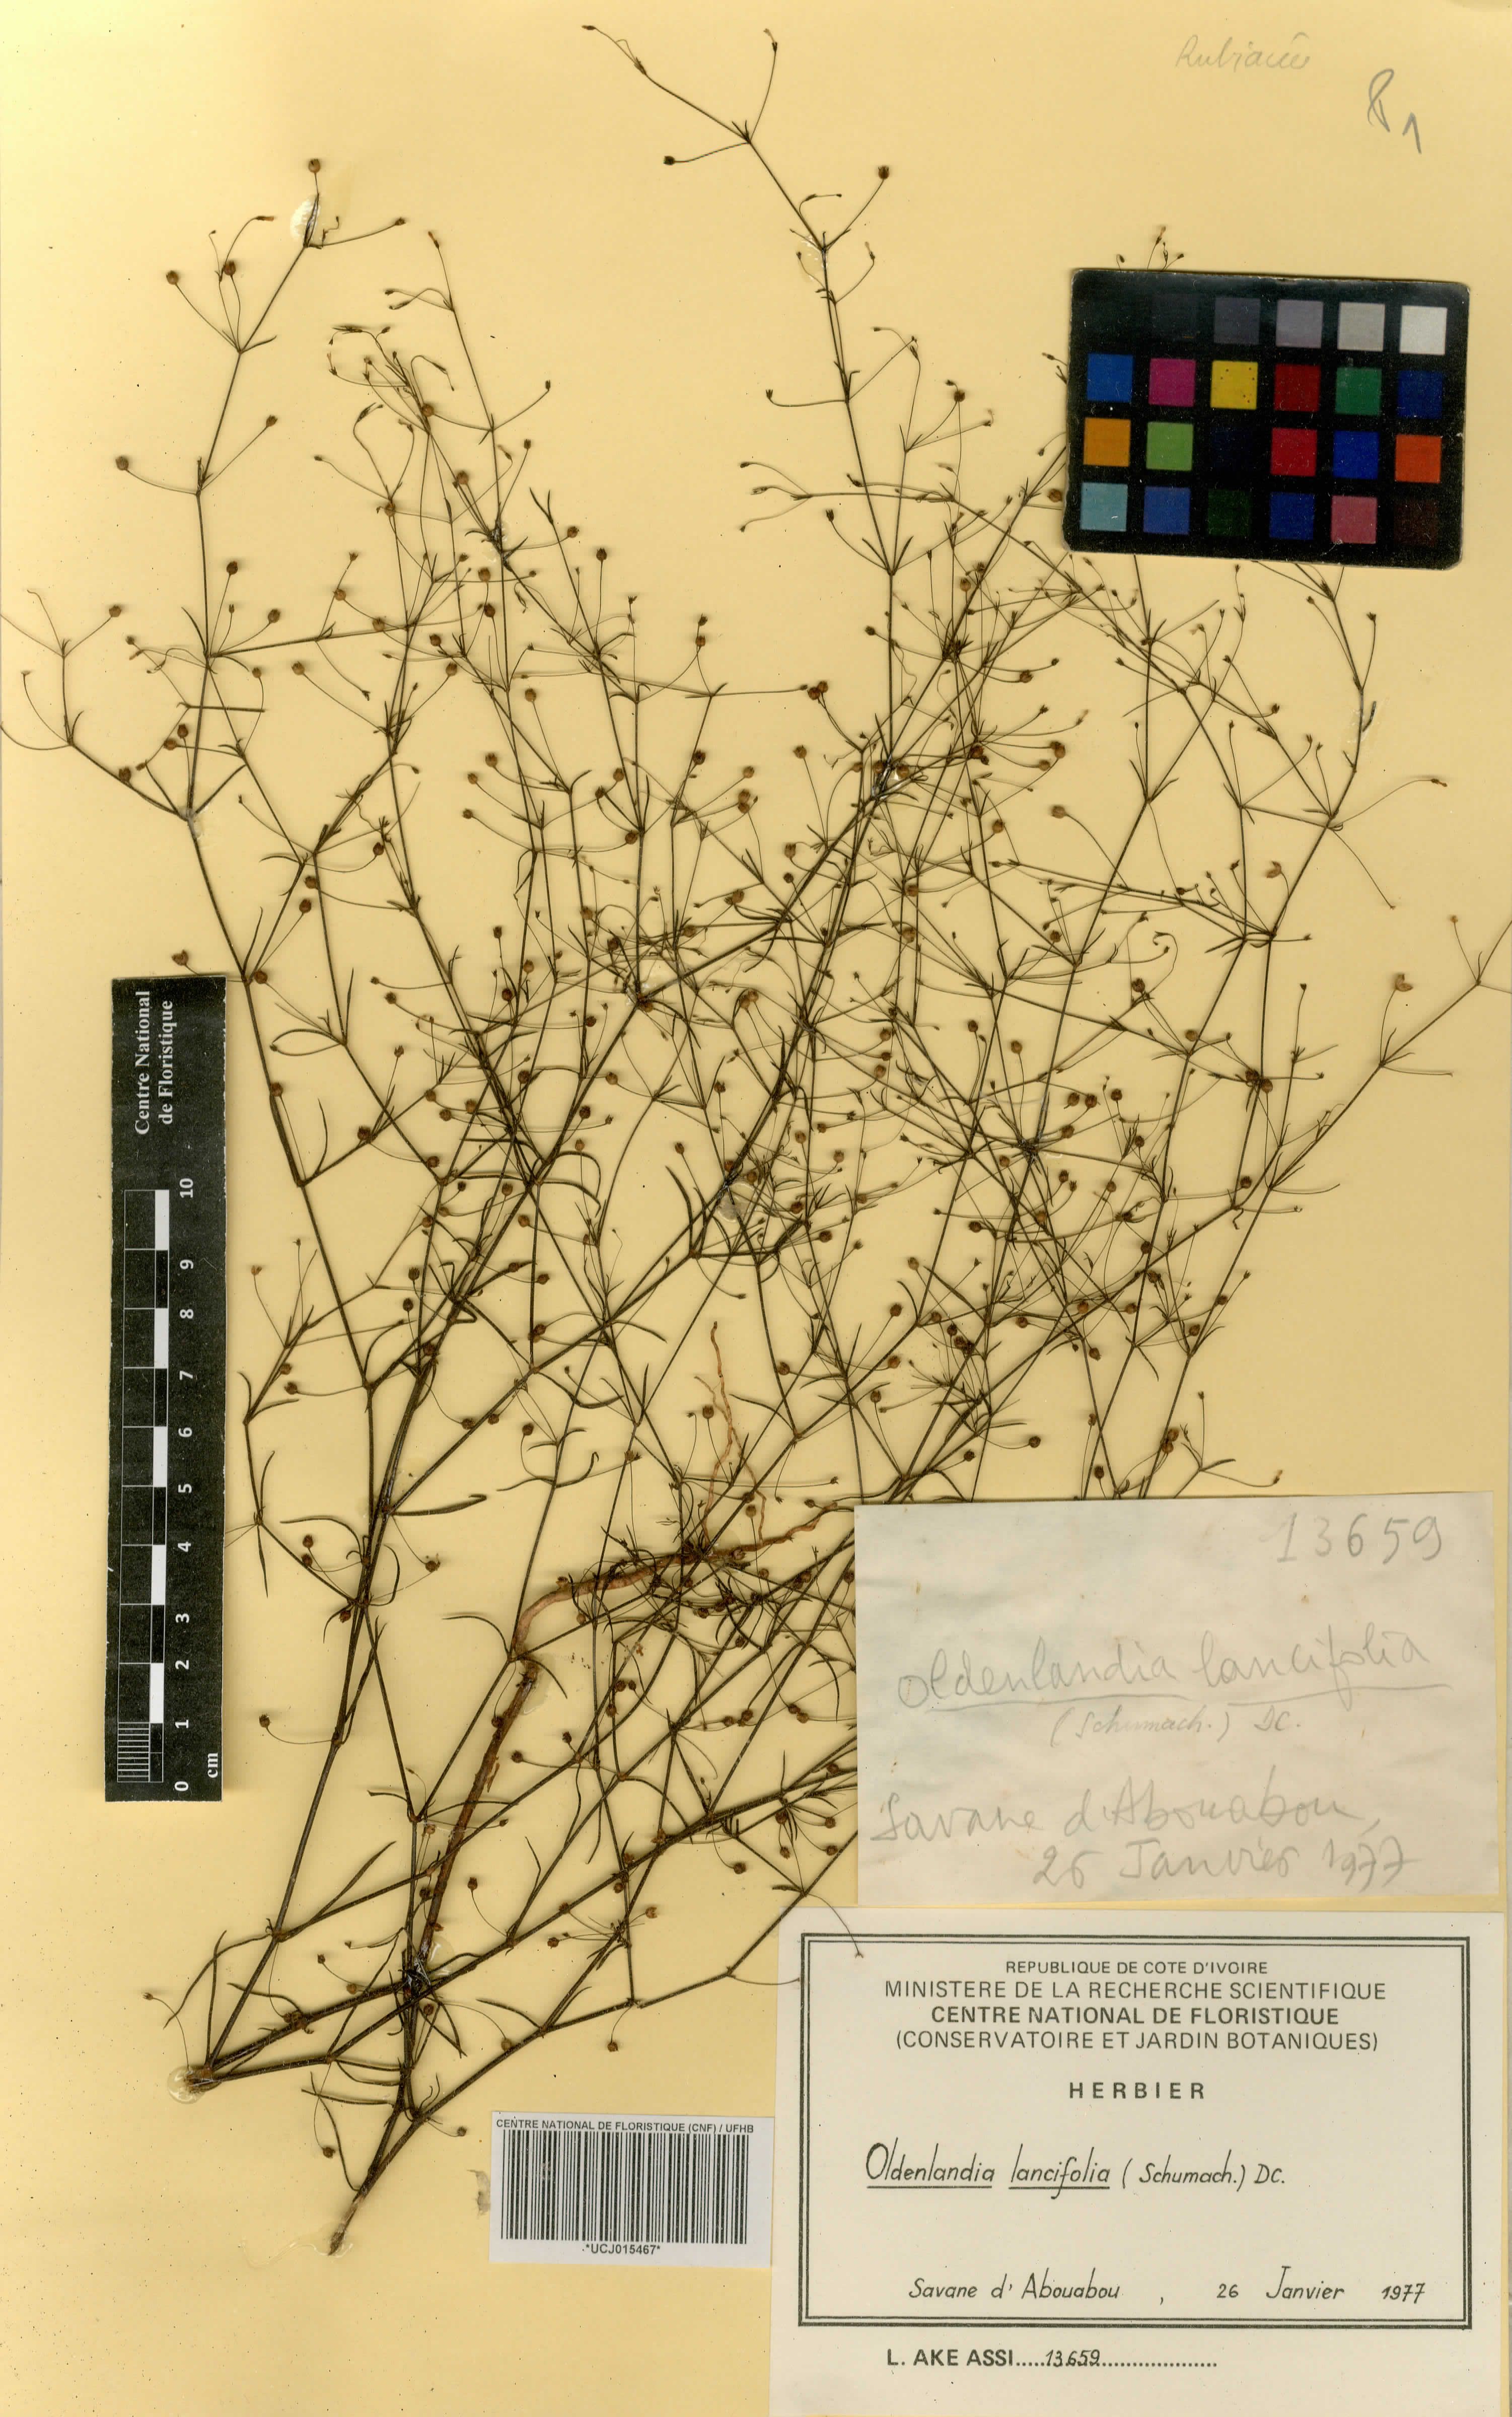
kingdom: Plantae
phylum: Tracheophyta
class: Magnoliopsida
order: Gentianales
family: Rubiaceae
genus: Oldenlandia
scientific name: Oldenlandia lancifolia
